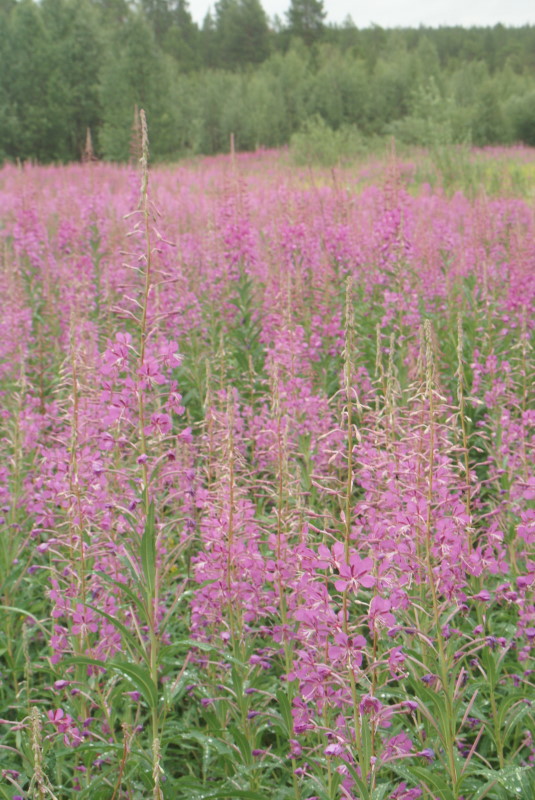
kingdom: Plantae
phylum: Tracheophyta
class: Magnoliopsida
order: Myrtales
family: Onagraceae
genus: Chamaenerion
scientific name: Chamaenerion angustifolium
